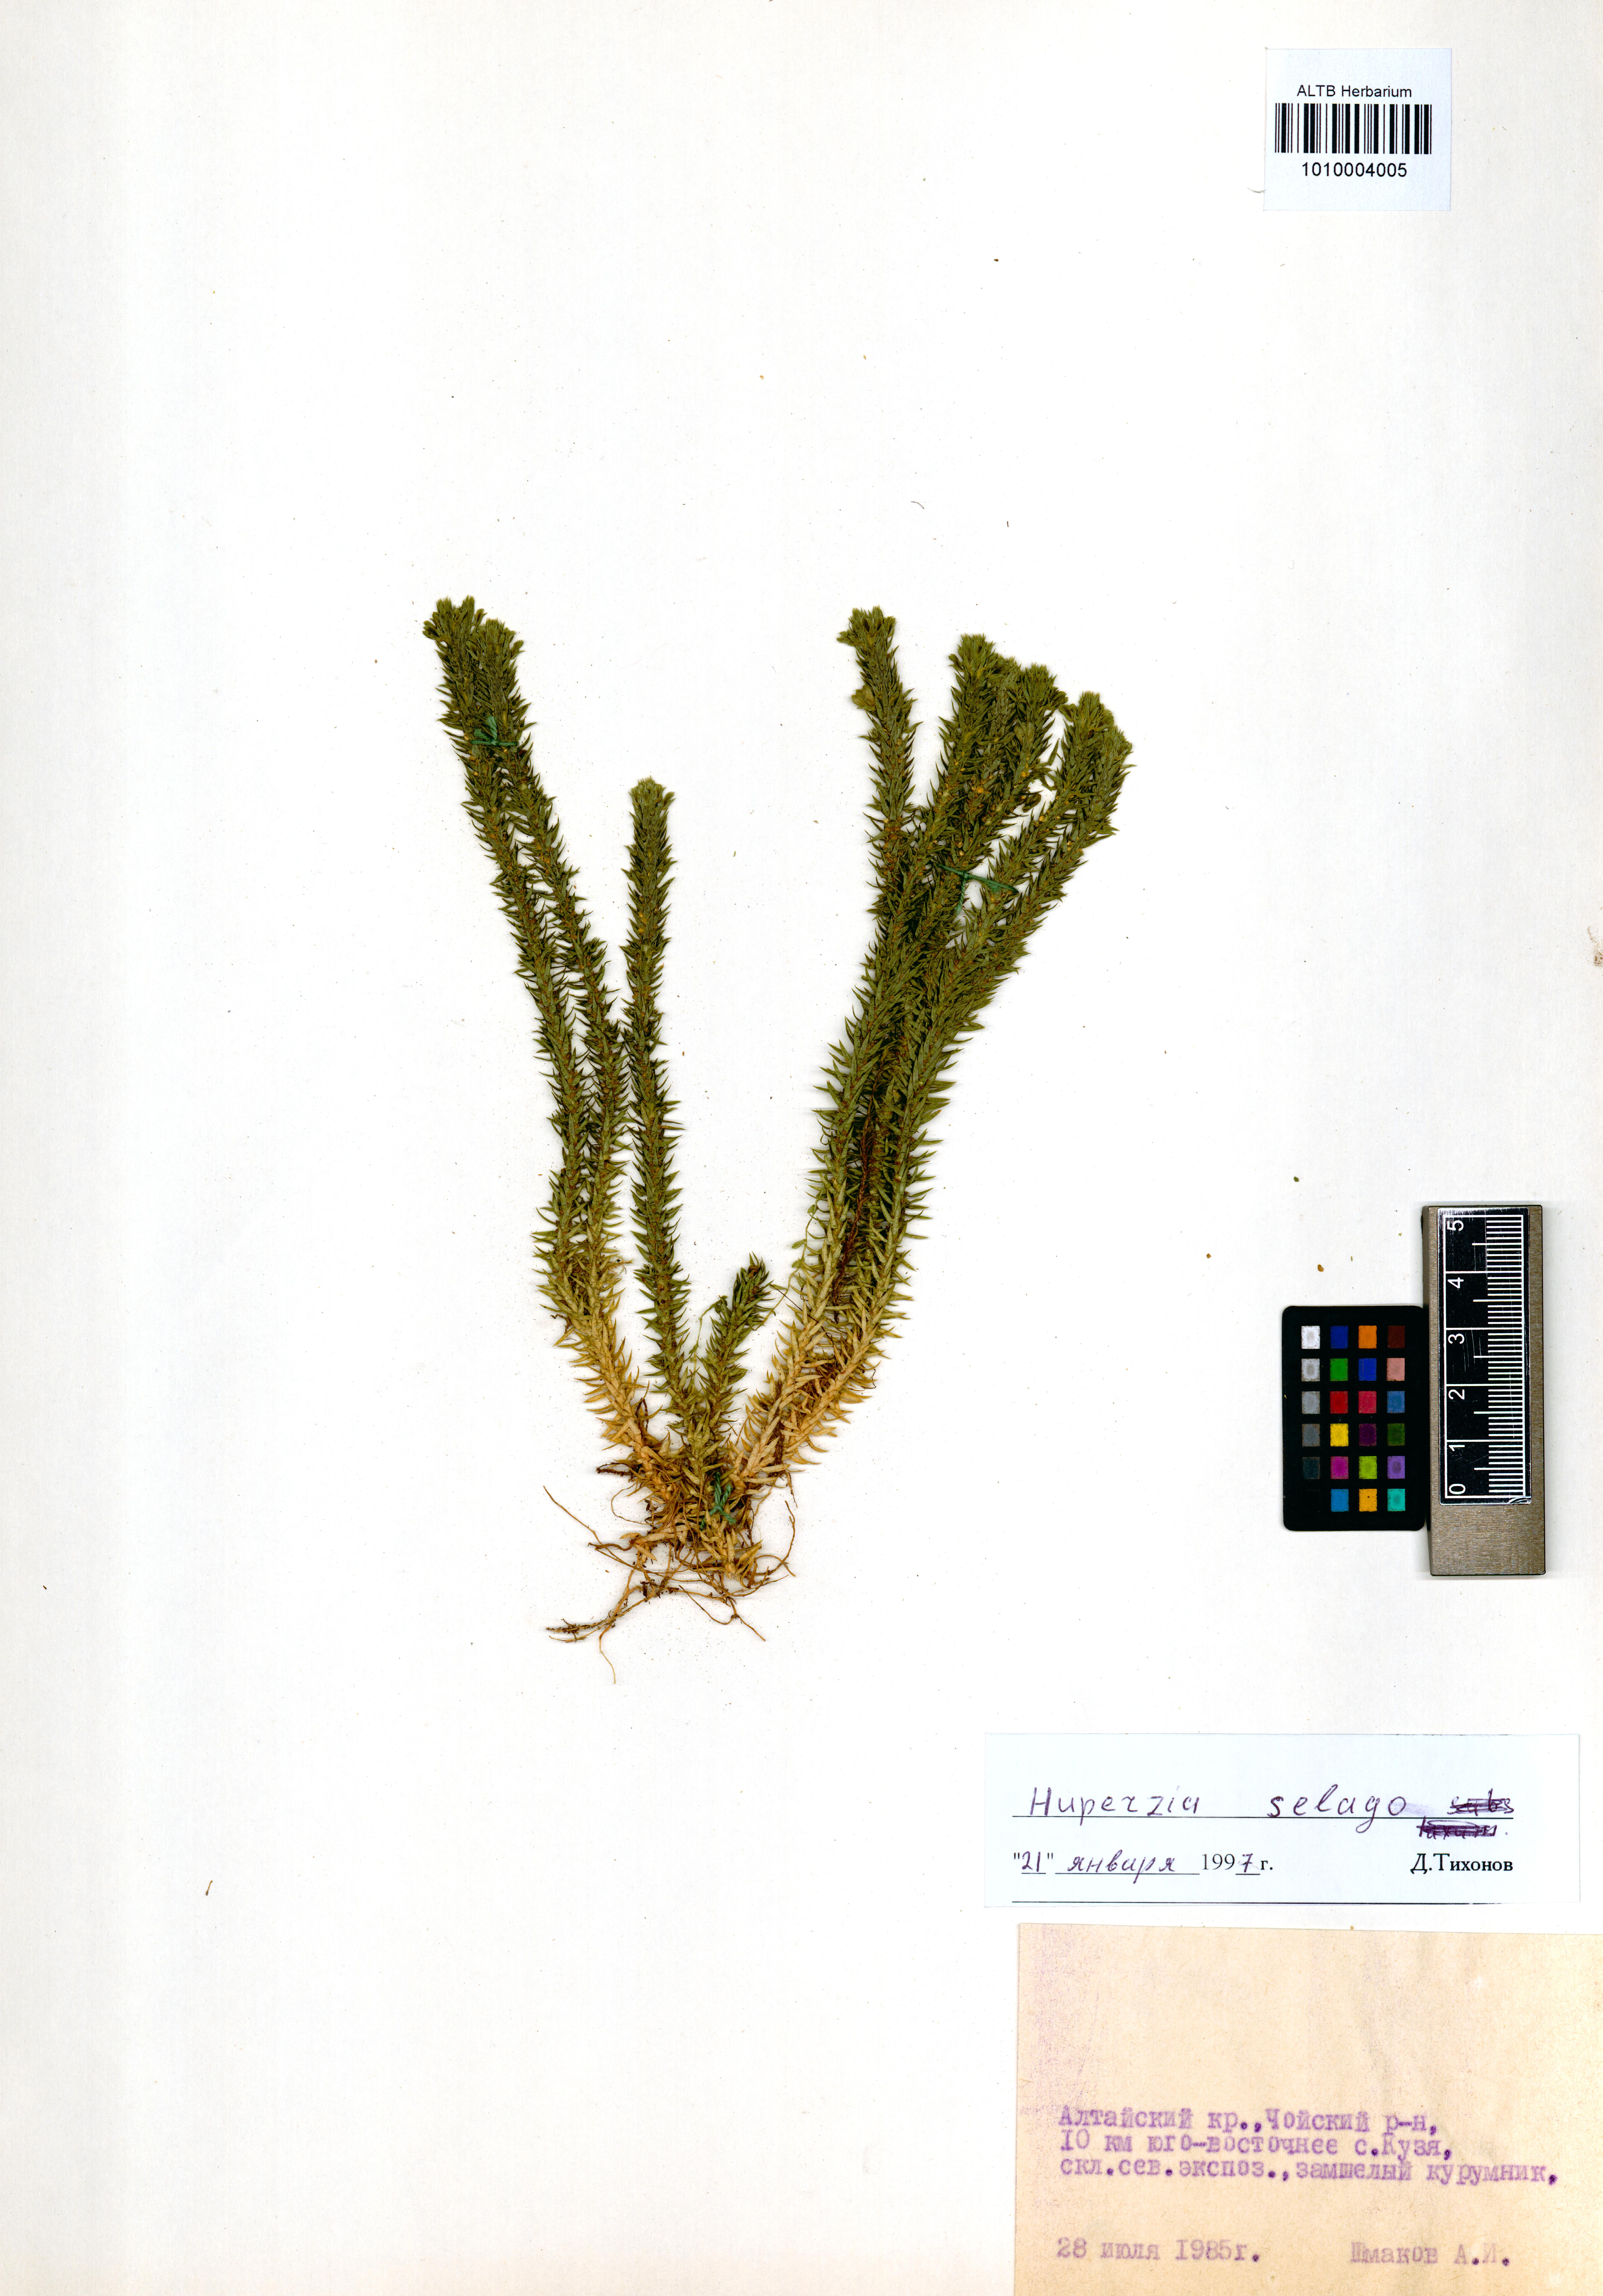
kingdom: Plantae
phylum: Tracheophyta
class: Lycopodiopsida
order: Lycopodiales
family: Lycopodiaceae
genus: Huperzia
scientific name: Huperzia selago
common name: Northern firmoss
